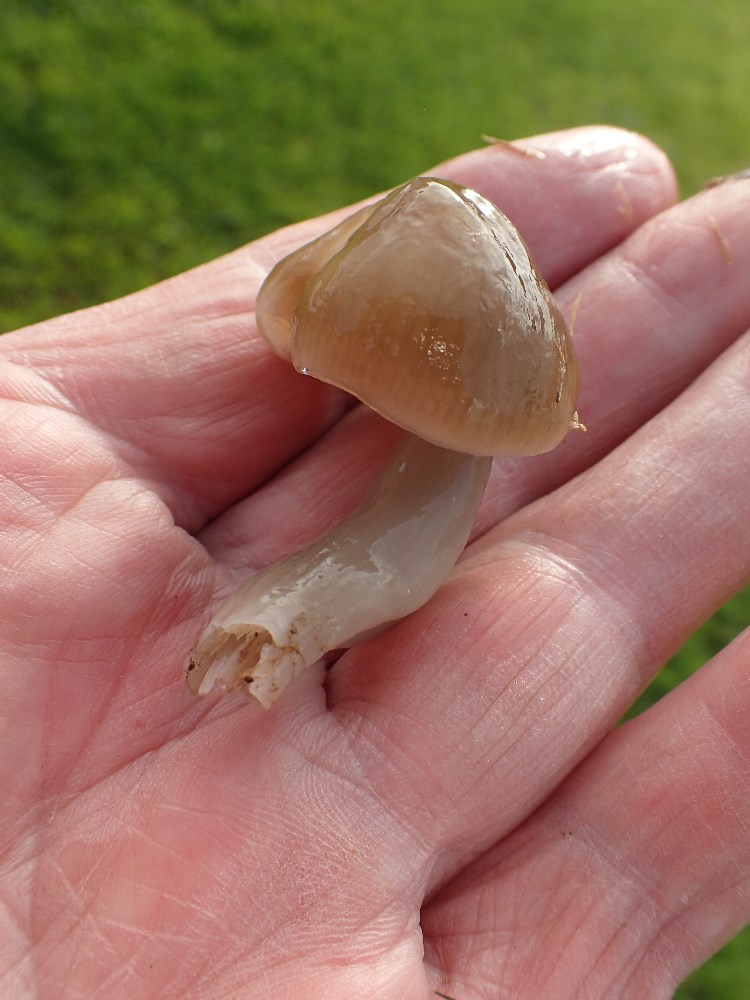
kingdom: Fungi
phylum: Basidiomycota
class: Agaricomycetes
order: Agaricales
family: Hygrophoraceae
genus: Gliophorus
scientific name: Gliophorus irrigatus
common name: slimet vokshat
